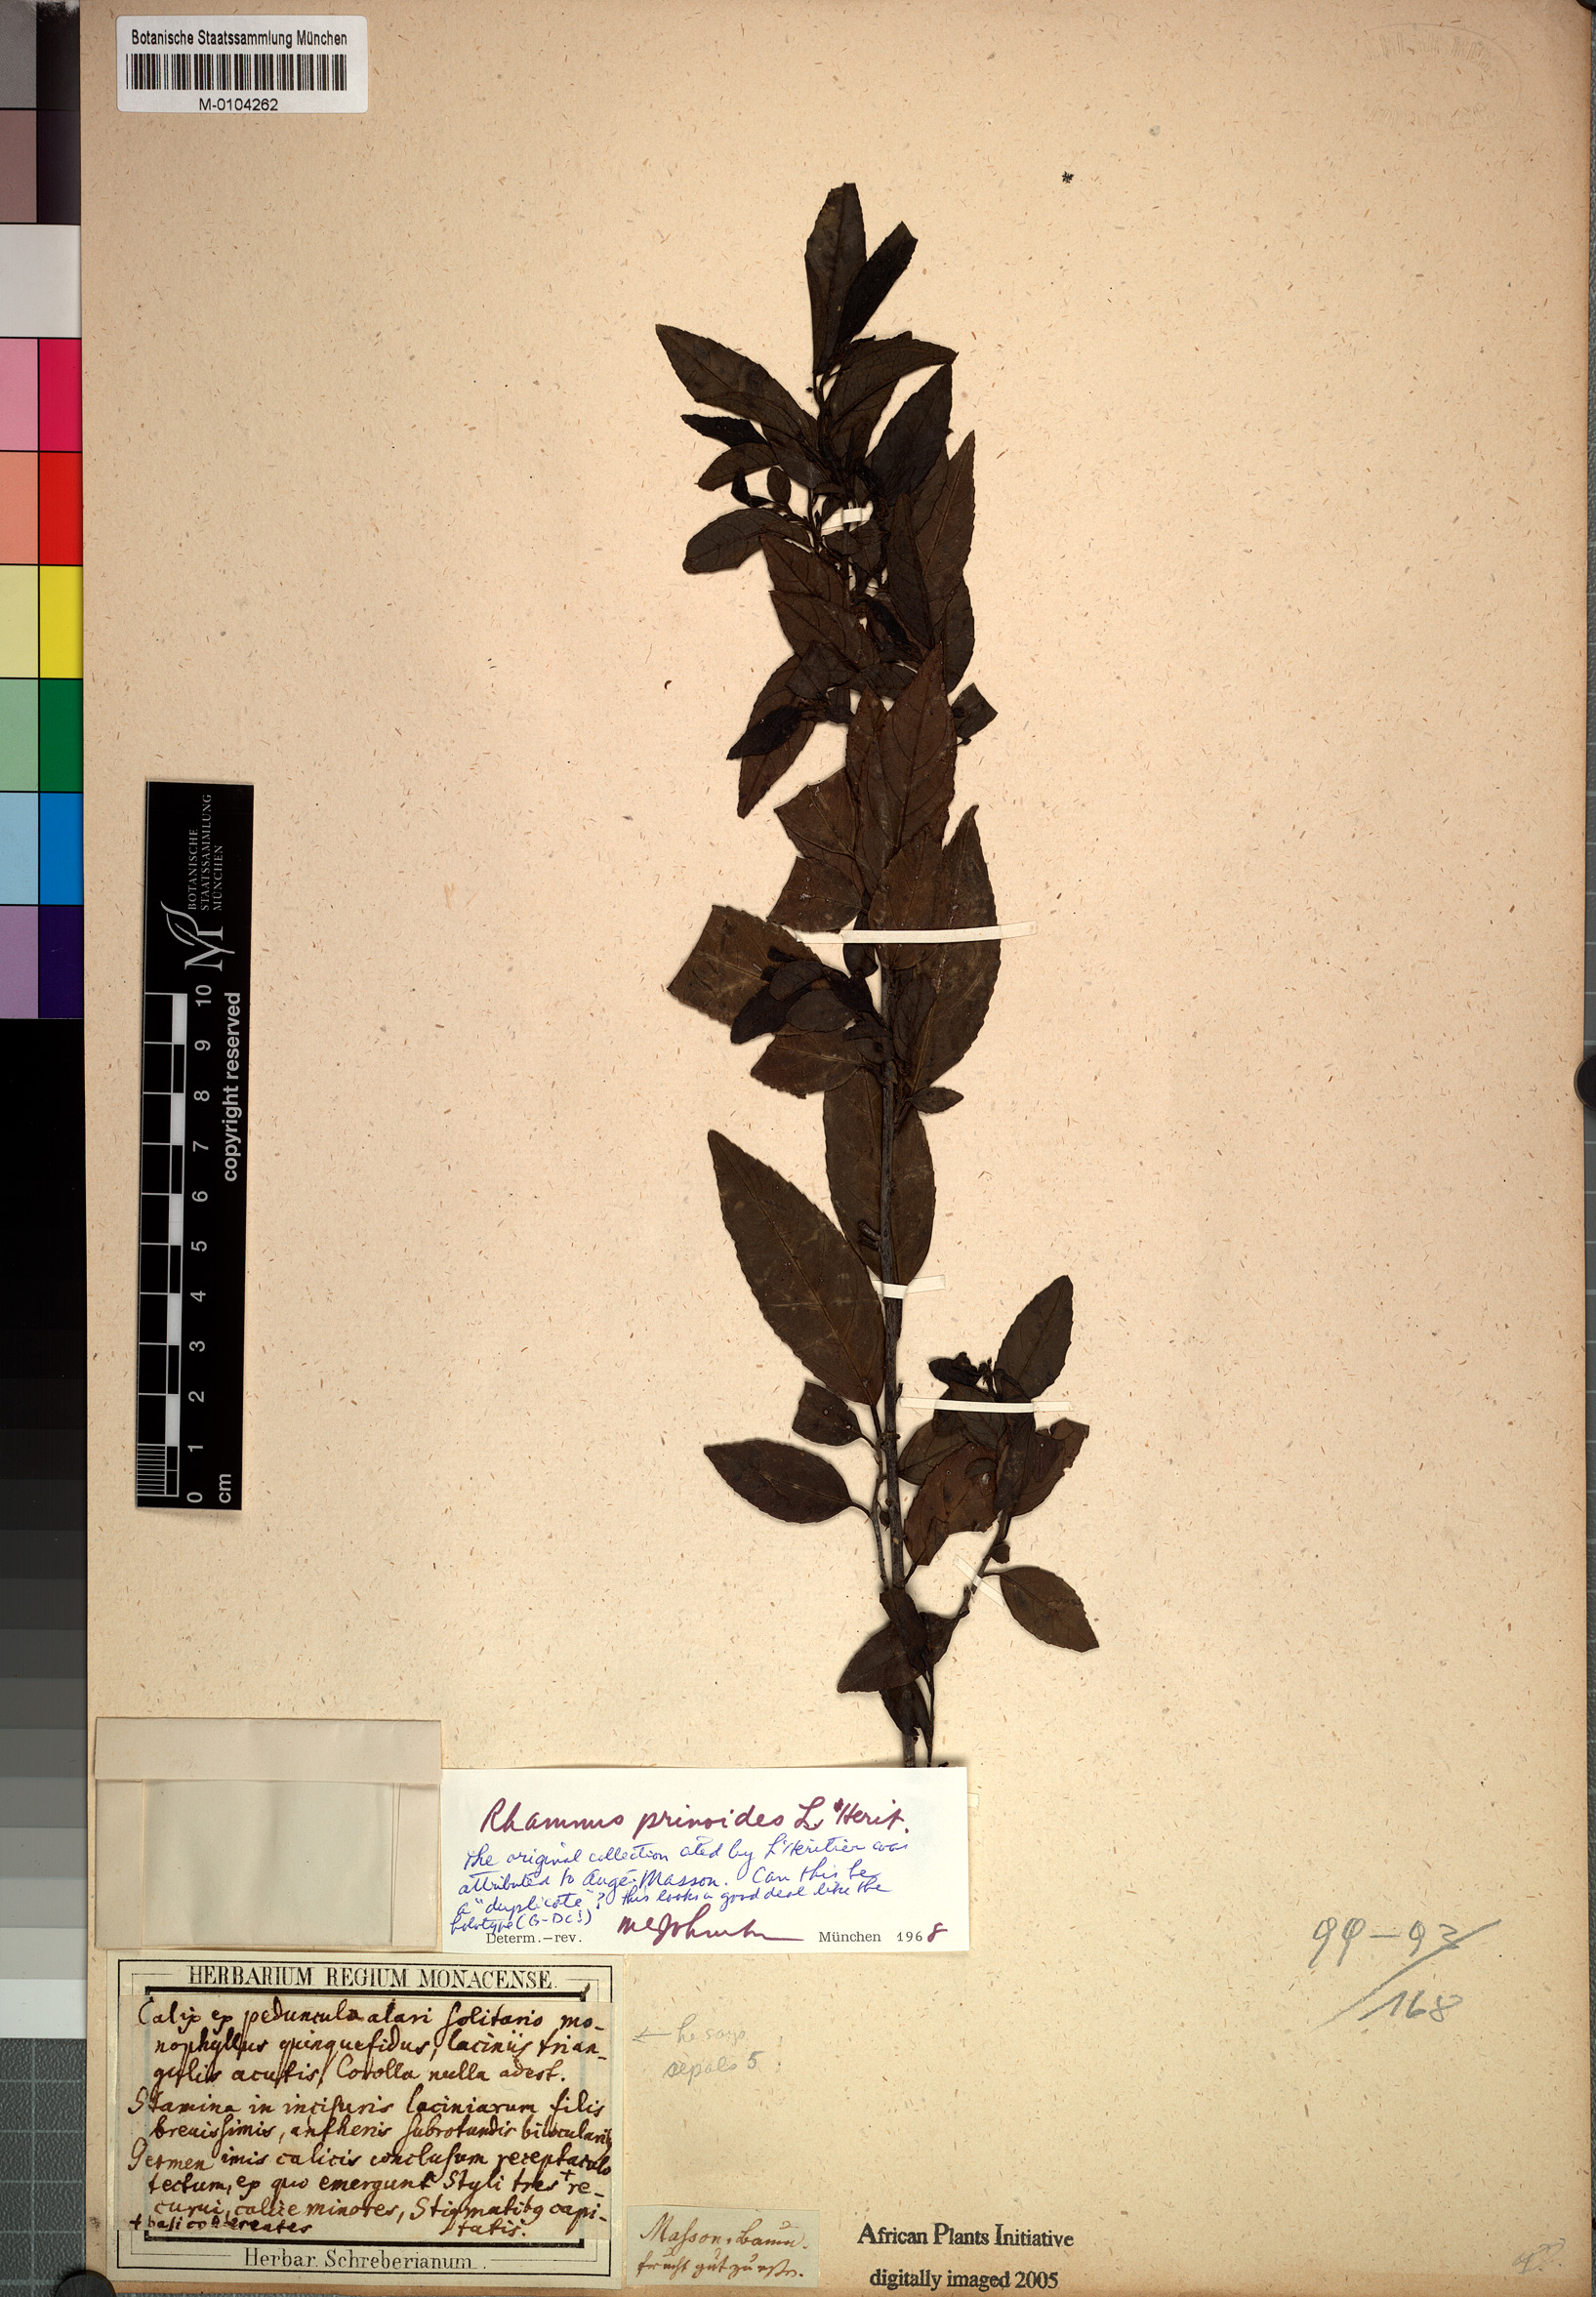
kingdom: Plantae
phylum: Tracheophyta
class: Magnoliopsida
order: Rosales
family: Rhamnaceae
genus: Rhamnus
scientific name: Rhamnus prinoides
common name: Dogwood
